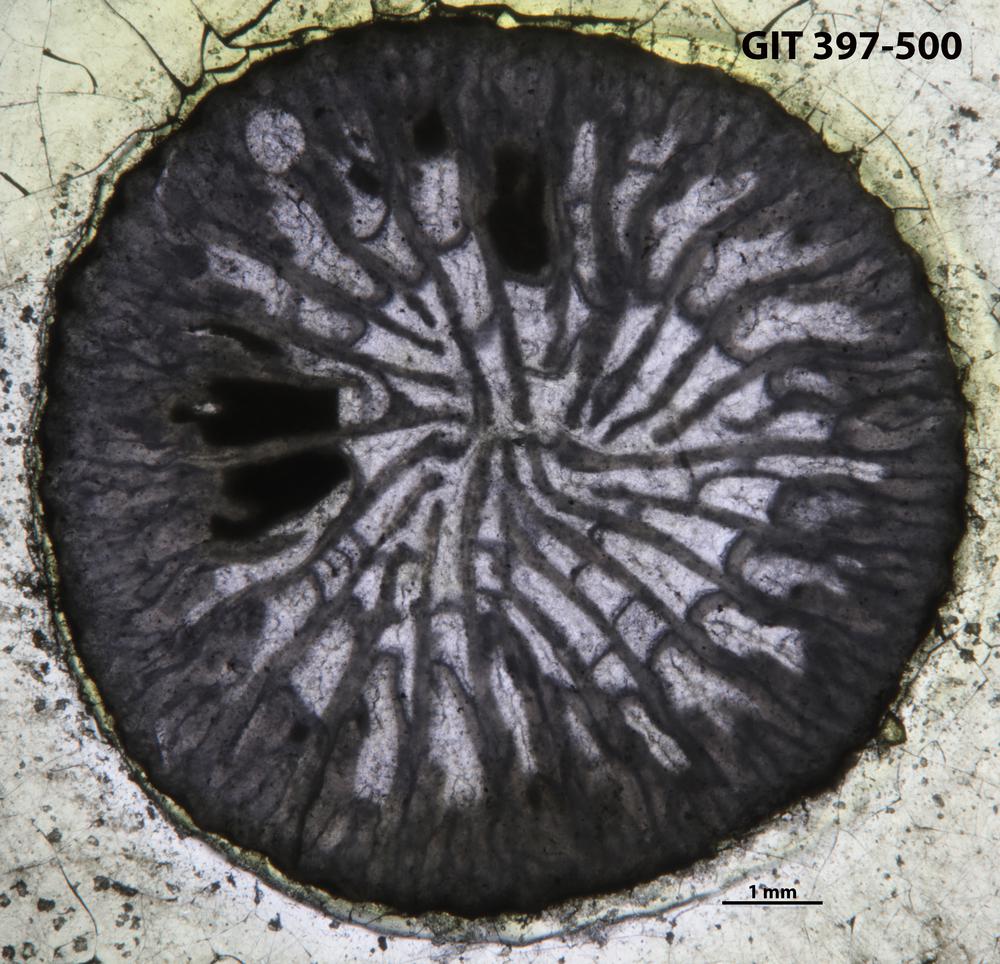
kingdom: Animalia
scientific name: Animalia
